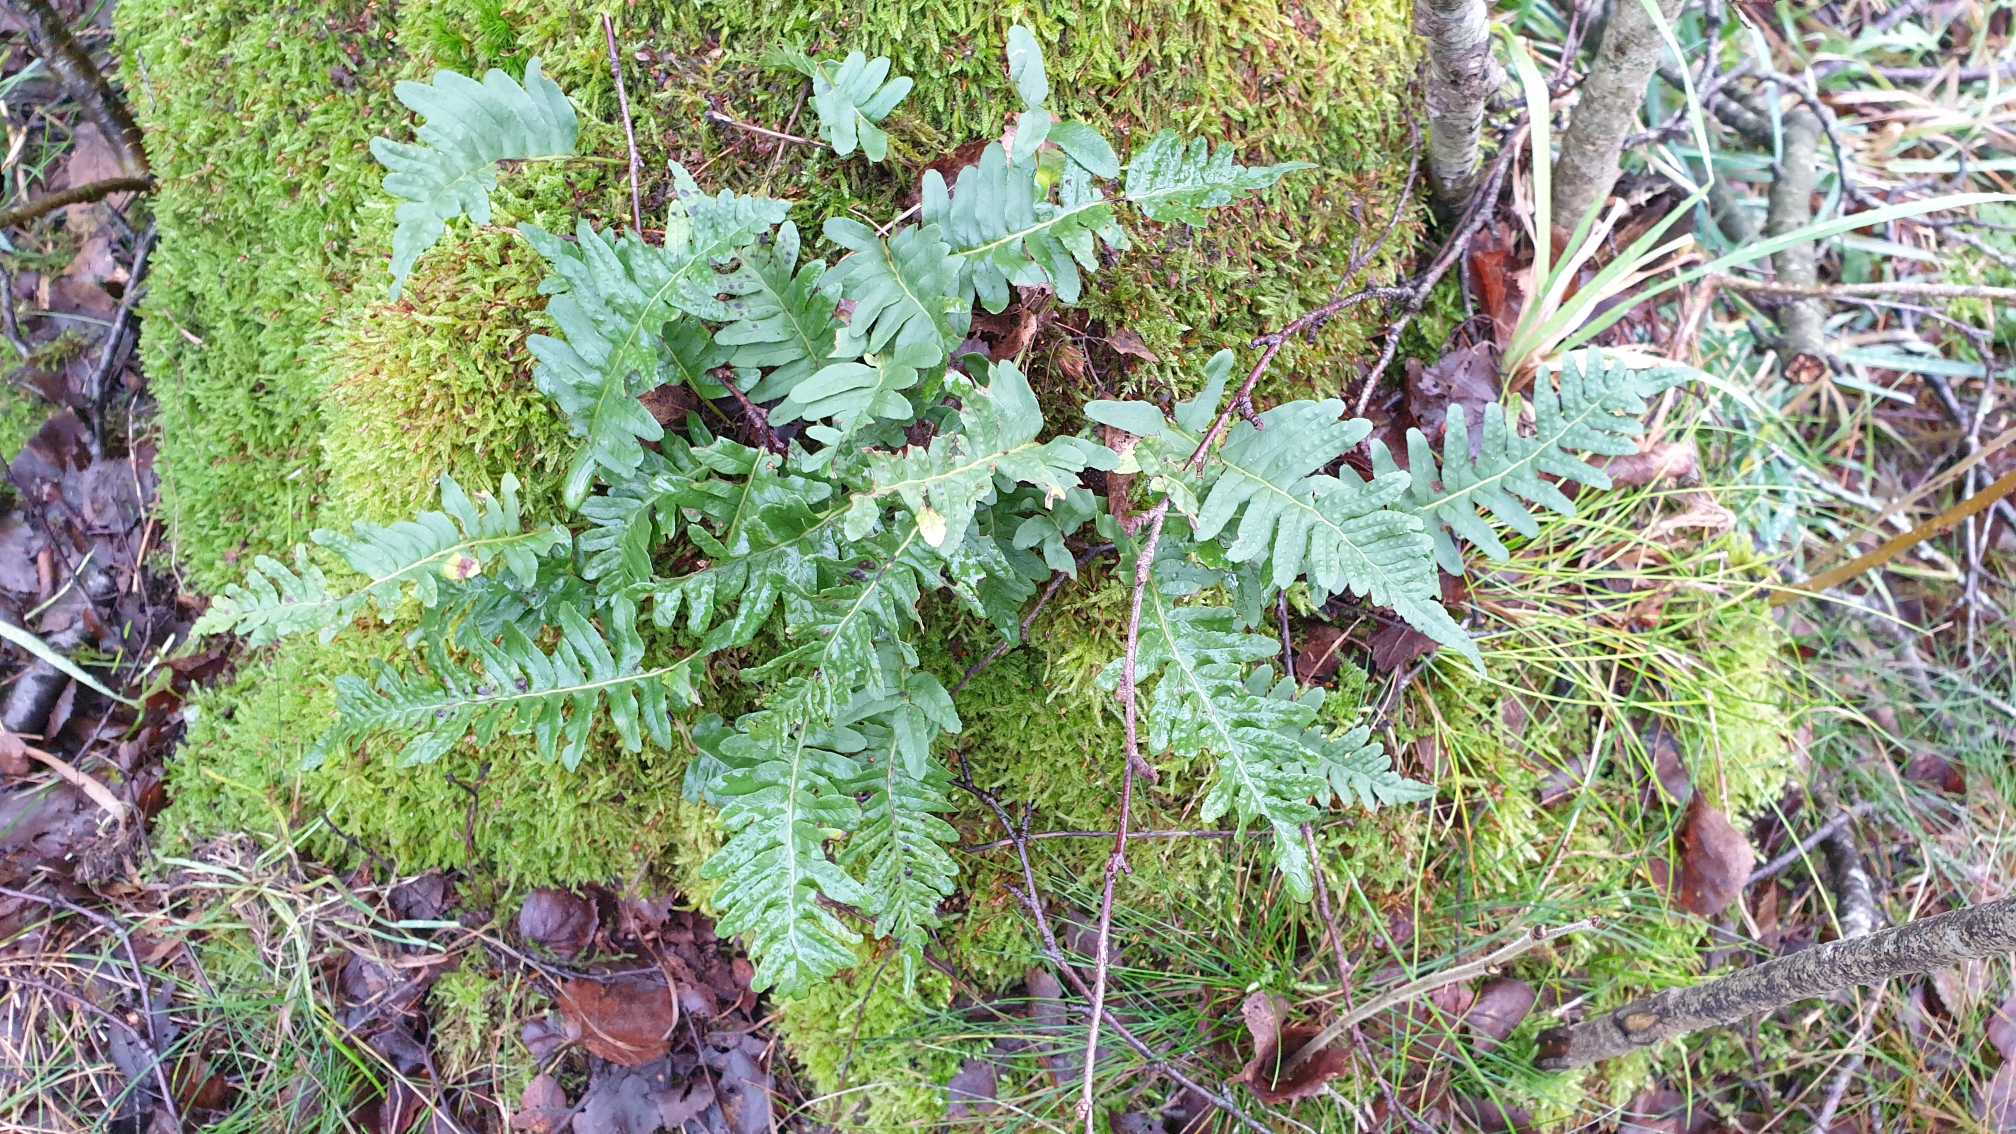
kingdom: Plantae
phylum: Tracheophyta
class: Polypodiopsida
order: Polypodiales
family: Polypodiaceae
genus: Polypodium
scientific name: Polypodium vulgare
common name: Almindelig engelsød
